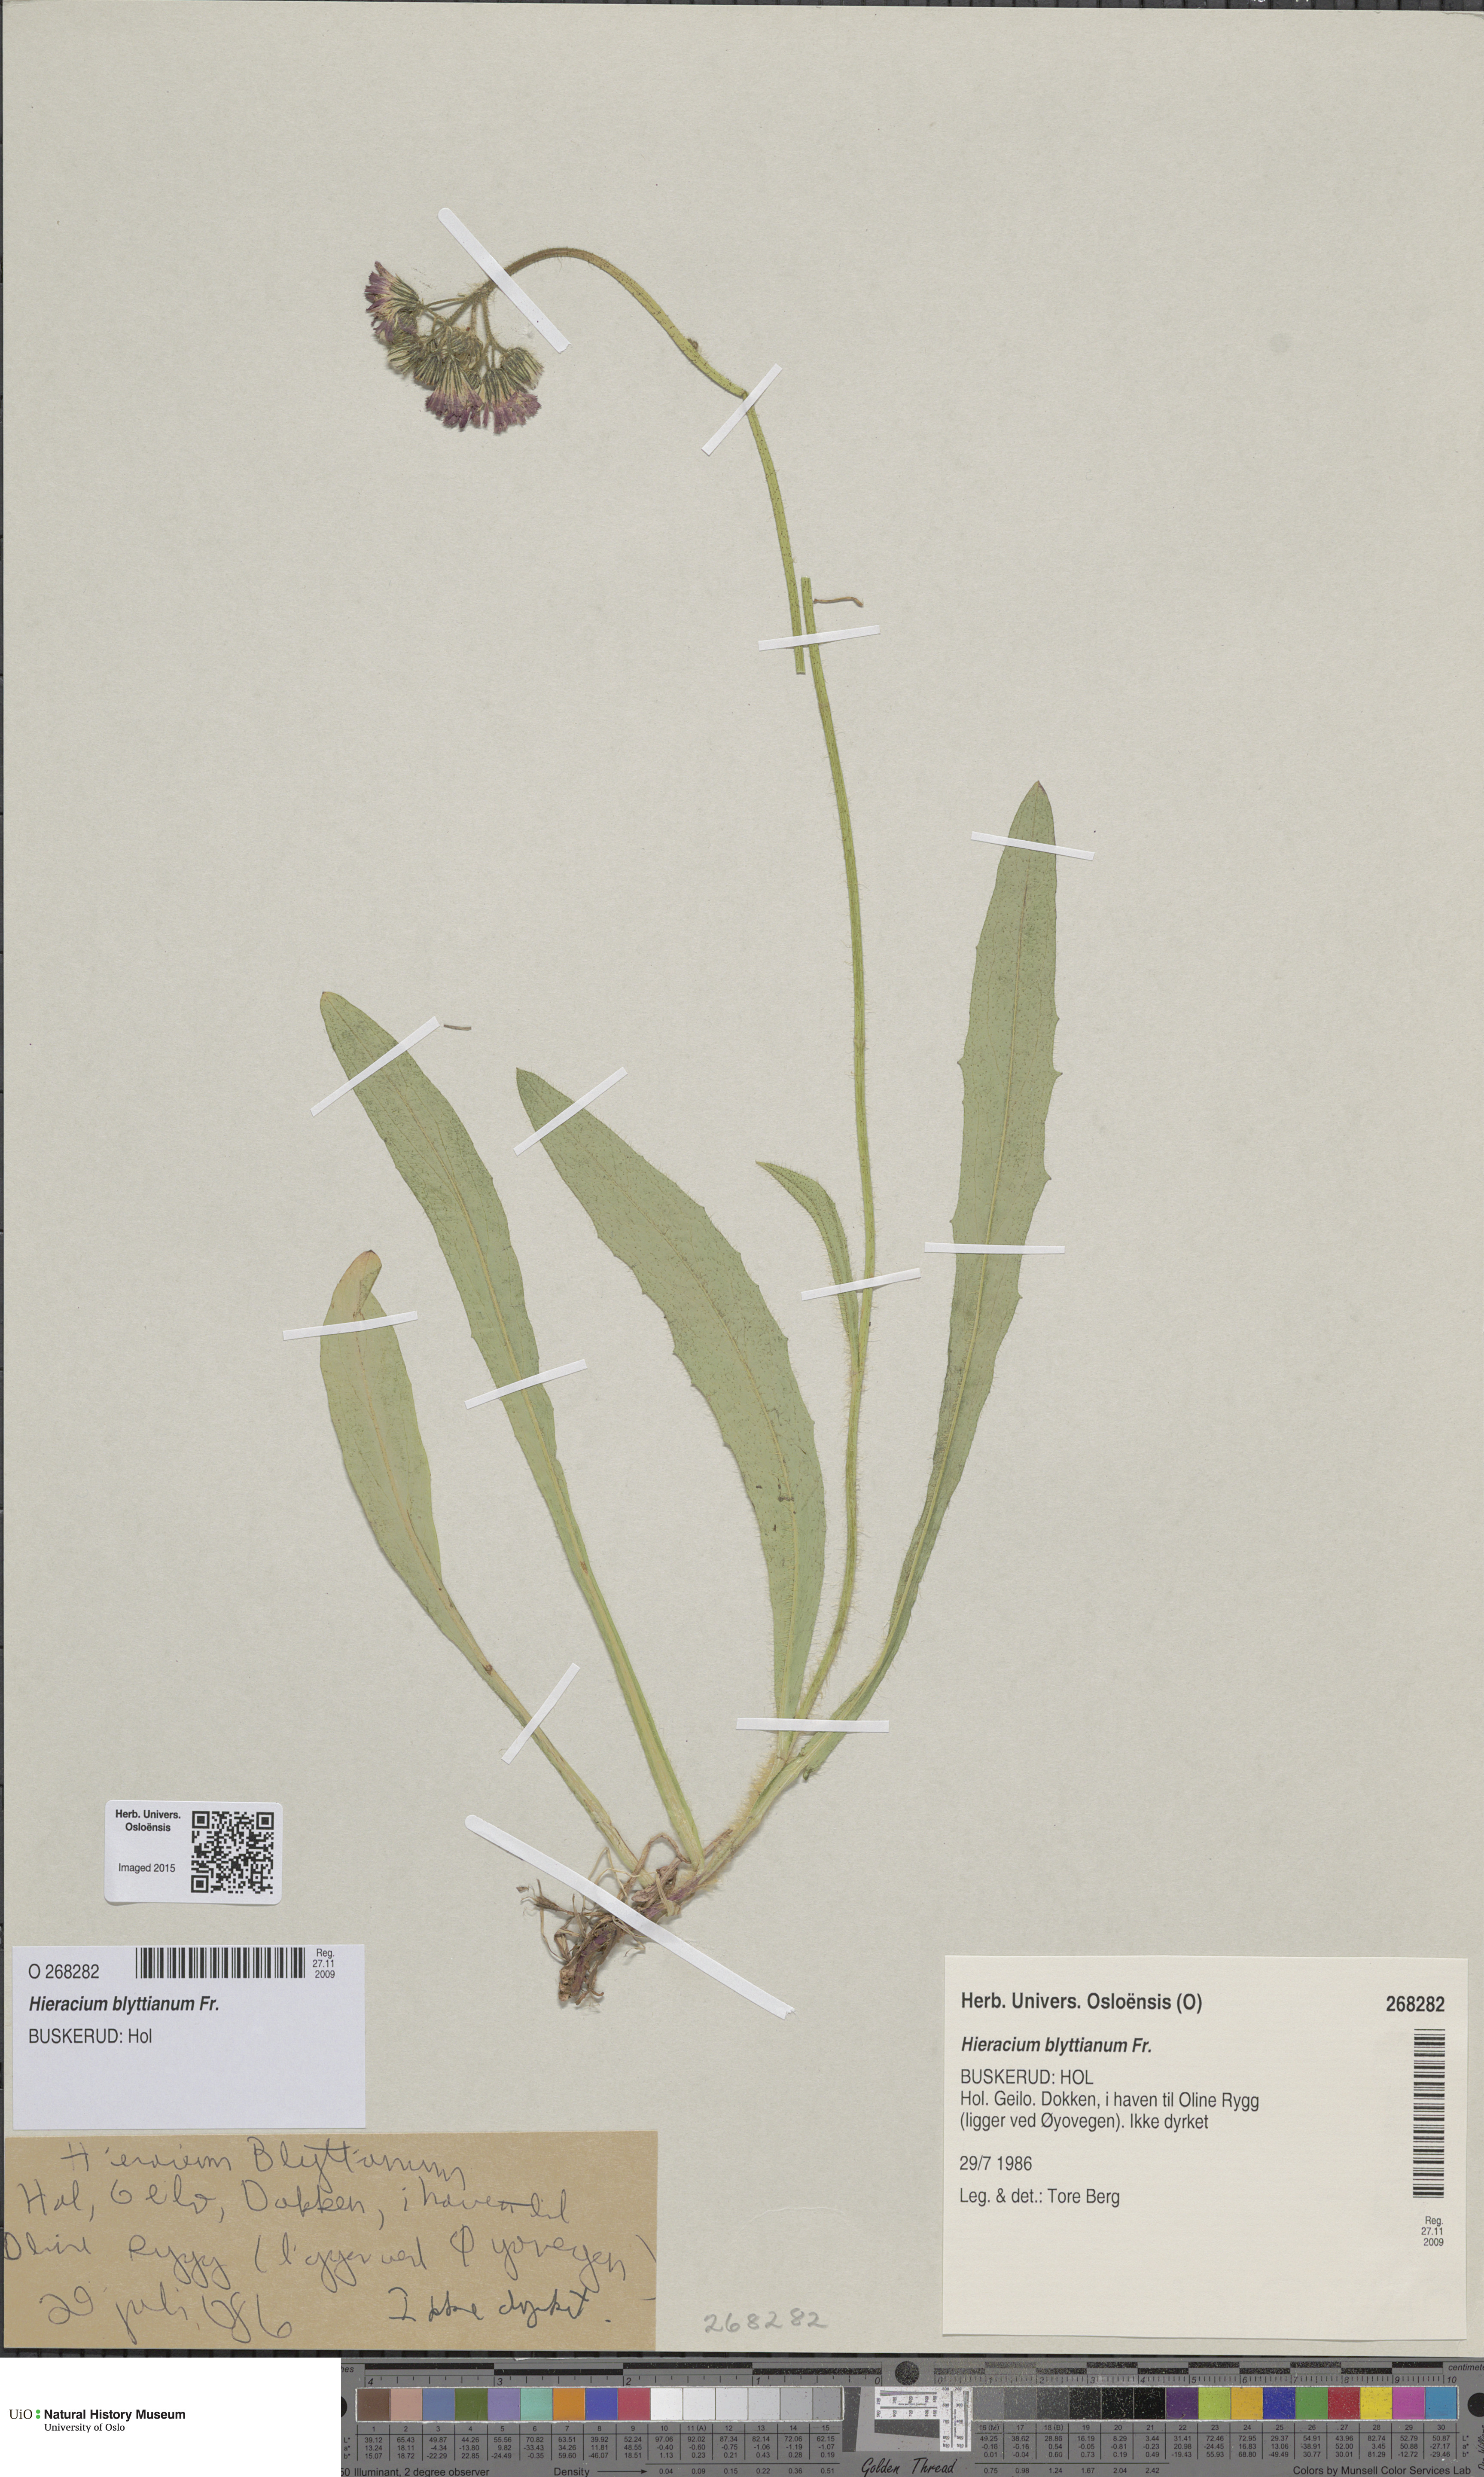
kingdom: Plantae
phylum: Tracheophyta
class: Magnoliopsida
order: Asterales
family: Asteraceae
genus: Pilosella
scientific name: Pilosella blyttiana
